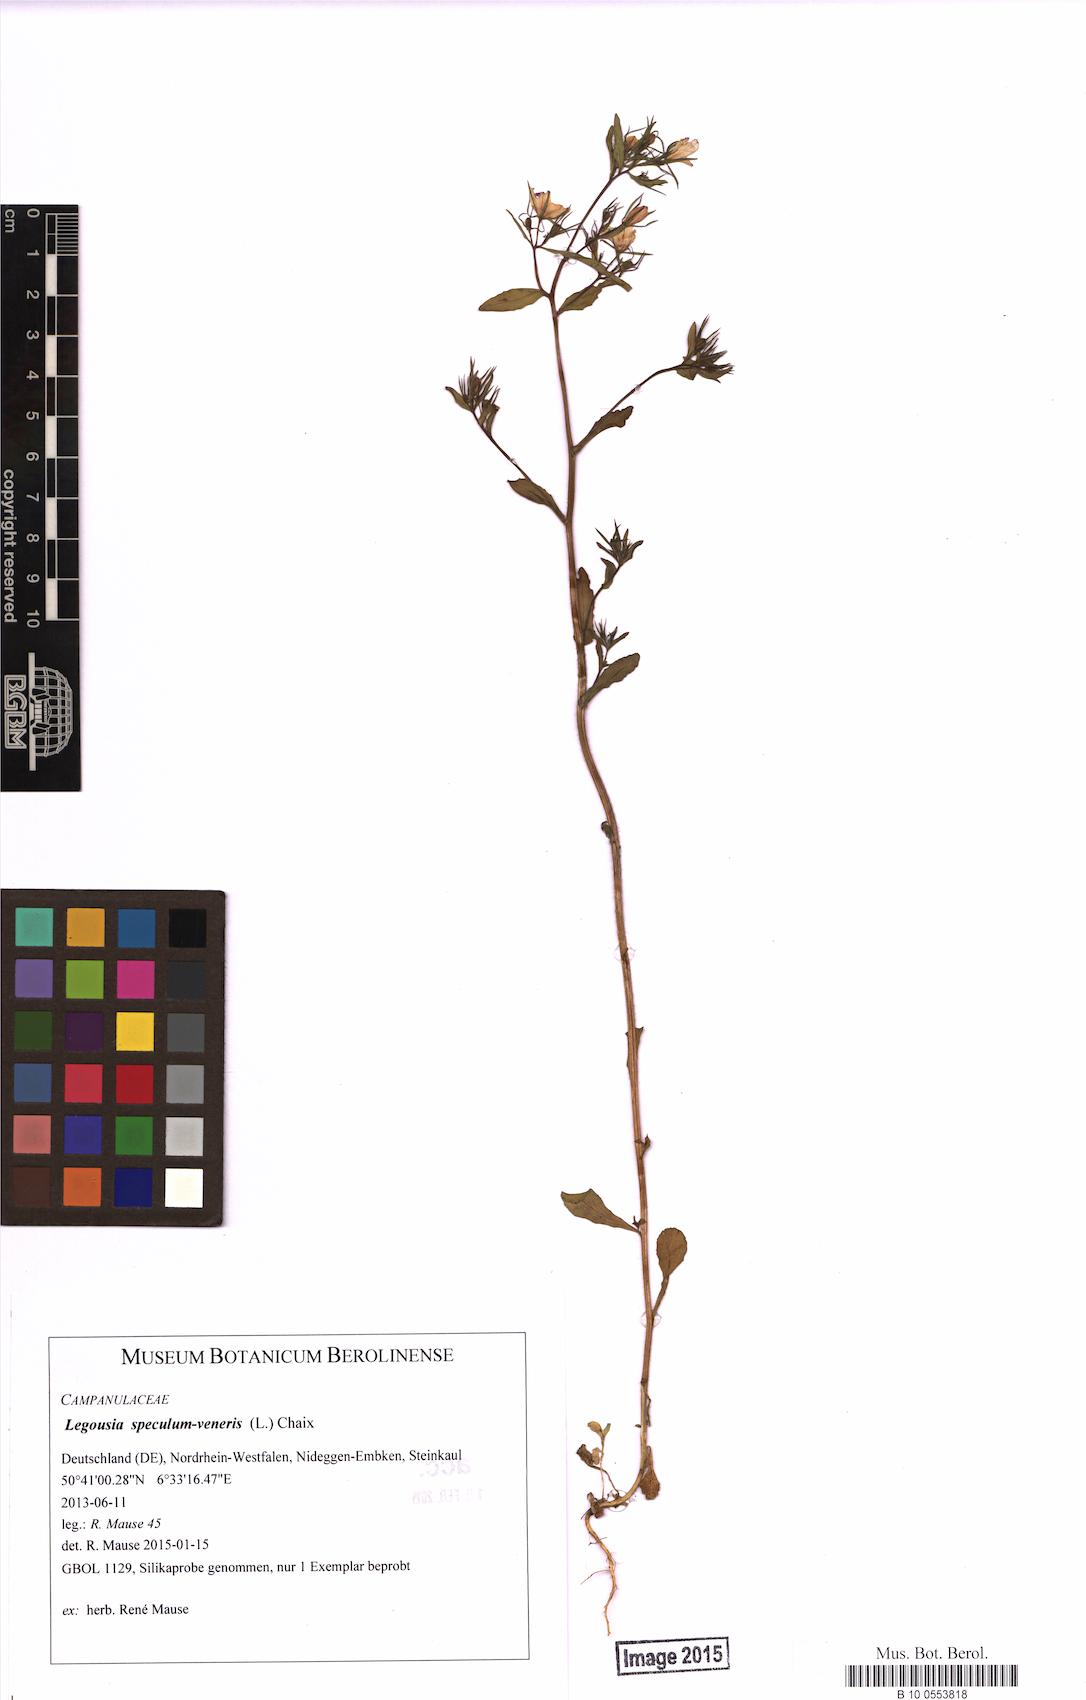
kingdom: Plantae
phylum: Tracheophyta
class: Magnoliopsida
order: Asterales
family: Campanulaceae
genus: Legousia
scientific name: Legousia speculum-veneris
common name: Large venus's-looking-glass
